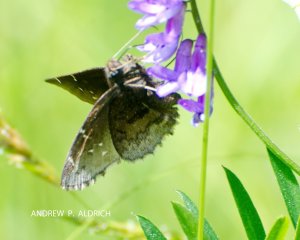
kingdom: Animalia
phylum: Arthropoda
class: Insecta
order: Lepidoptera
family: Hesperiidae
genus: Autochton
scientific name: Autochton
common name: Northern Cloudywing
